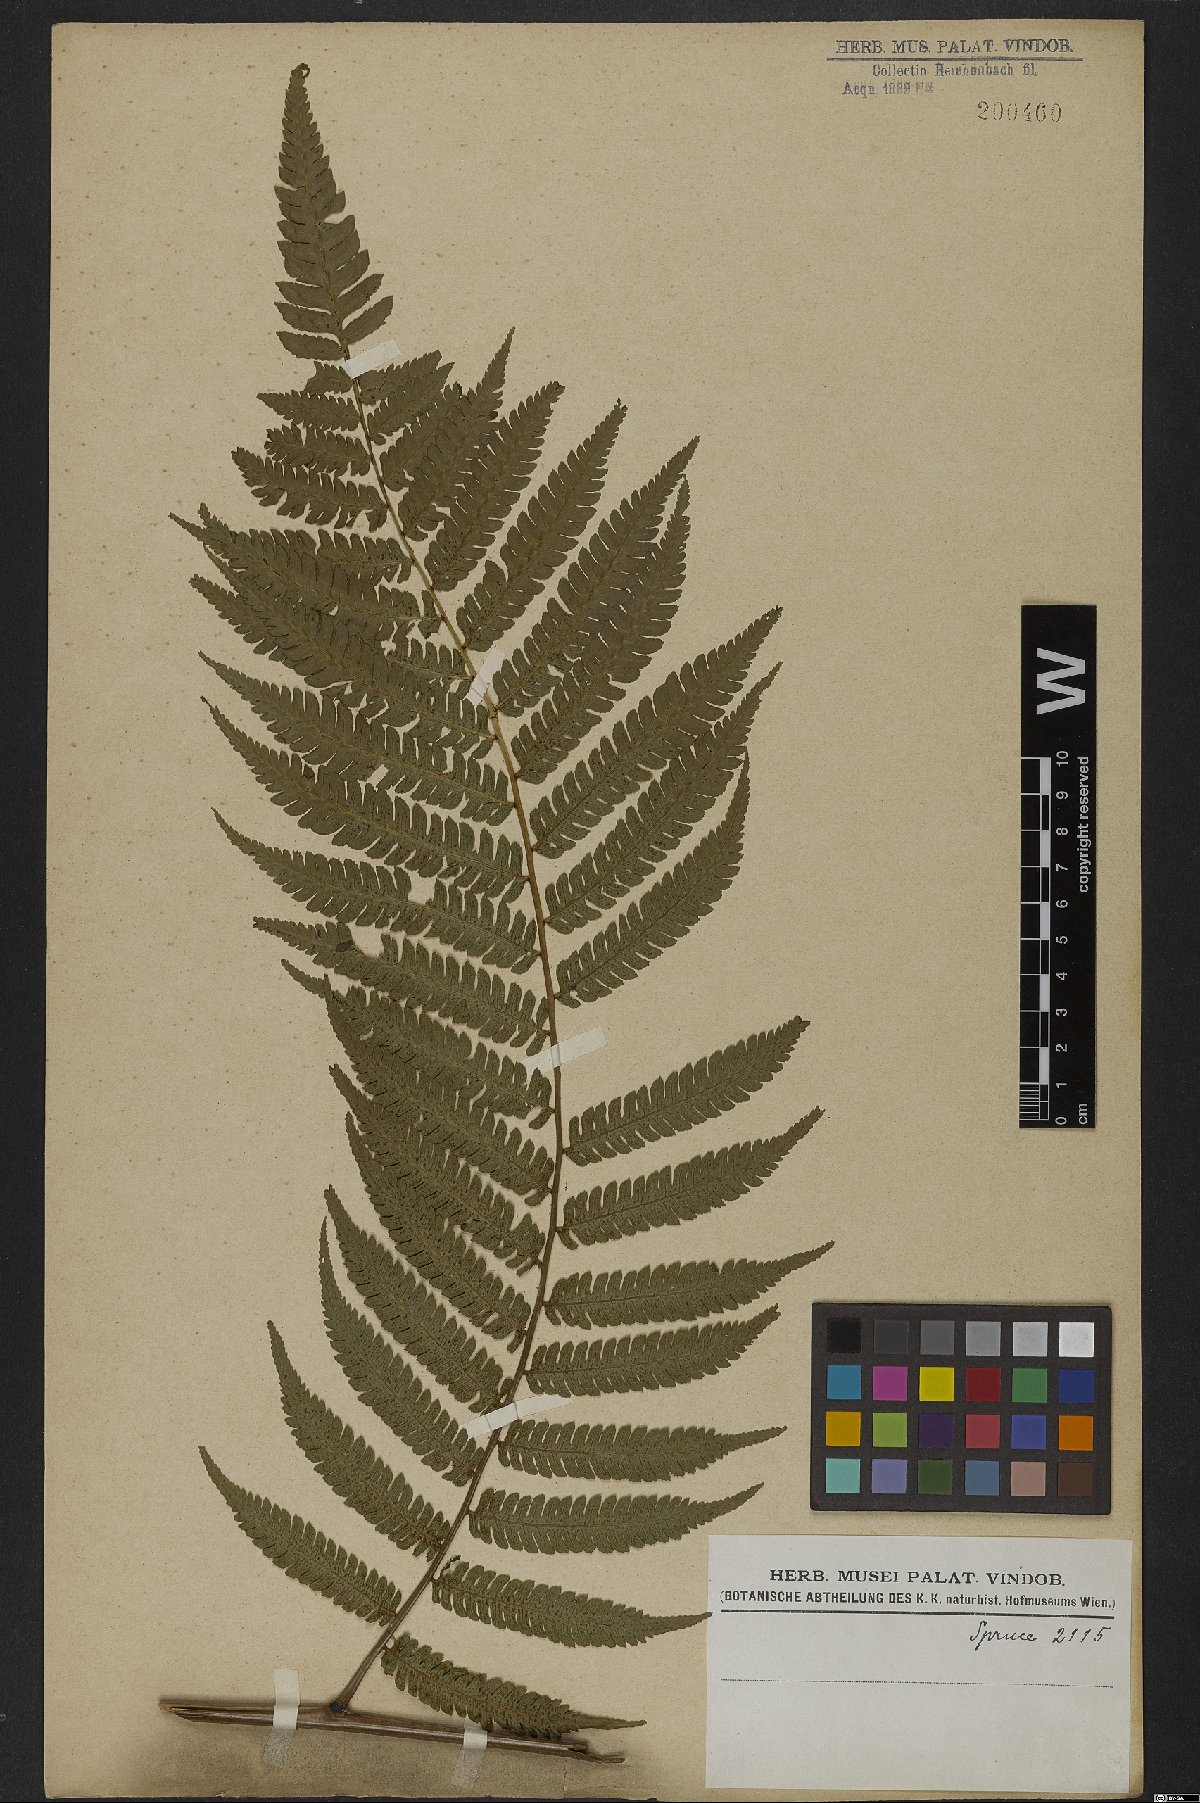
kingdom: Plantae
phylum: Tracheophyta
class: Polypodiopsida
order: Cyatheales
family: Cyatheaceae
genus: Cyathea
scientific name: Cyathea pungens
